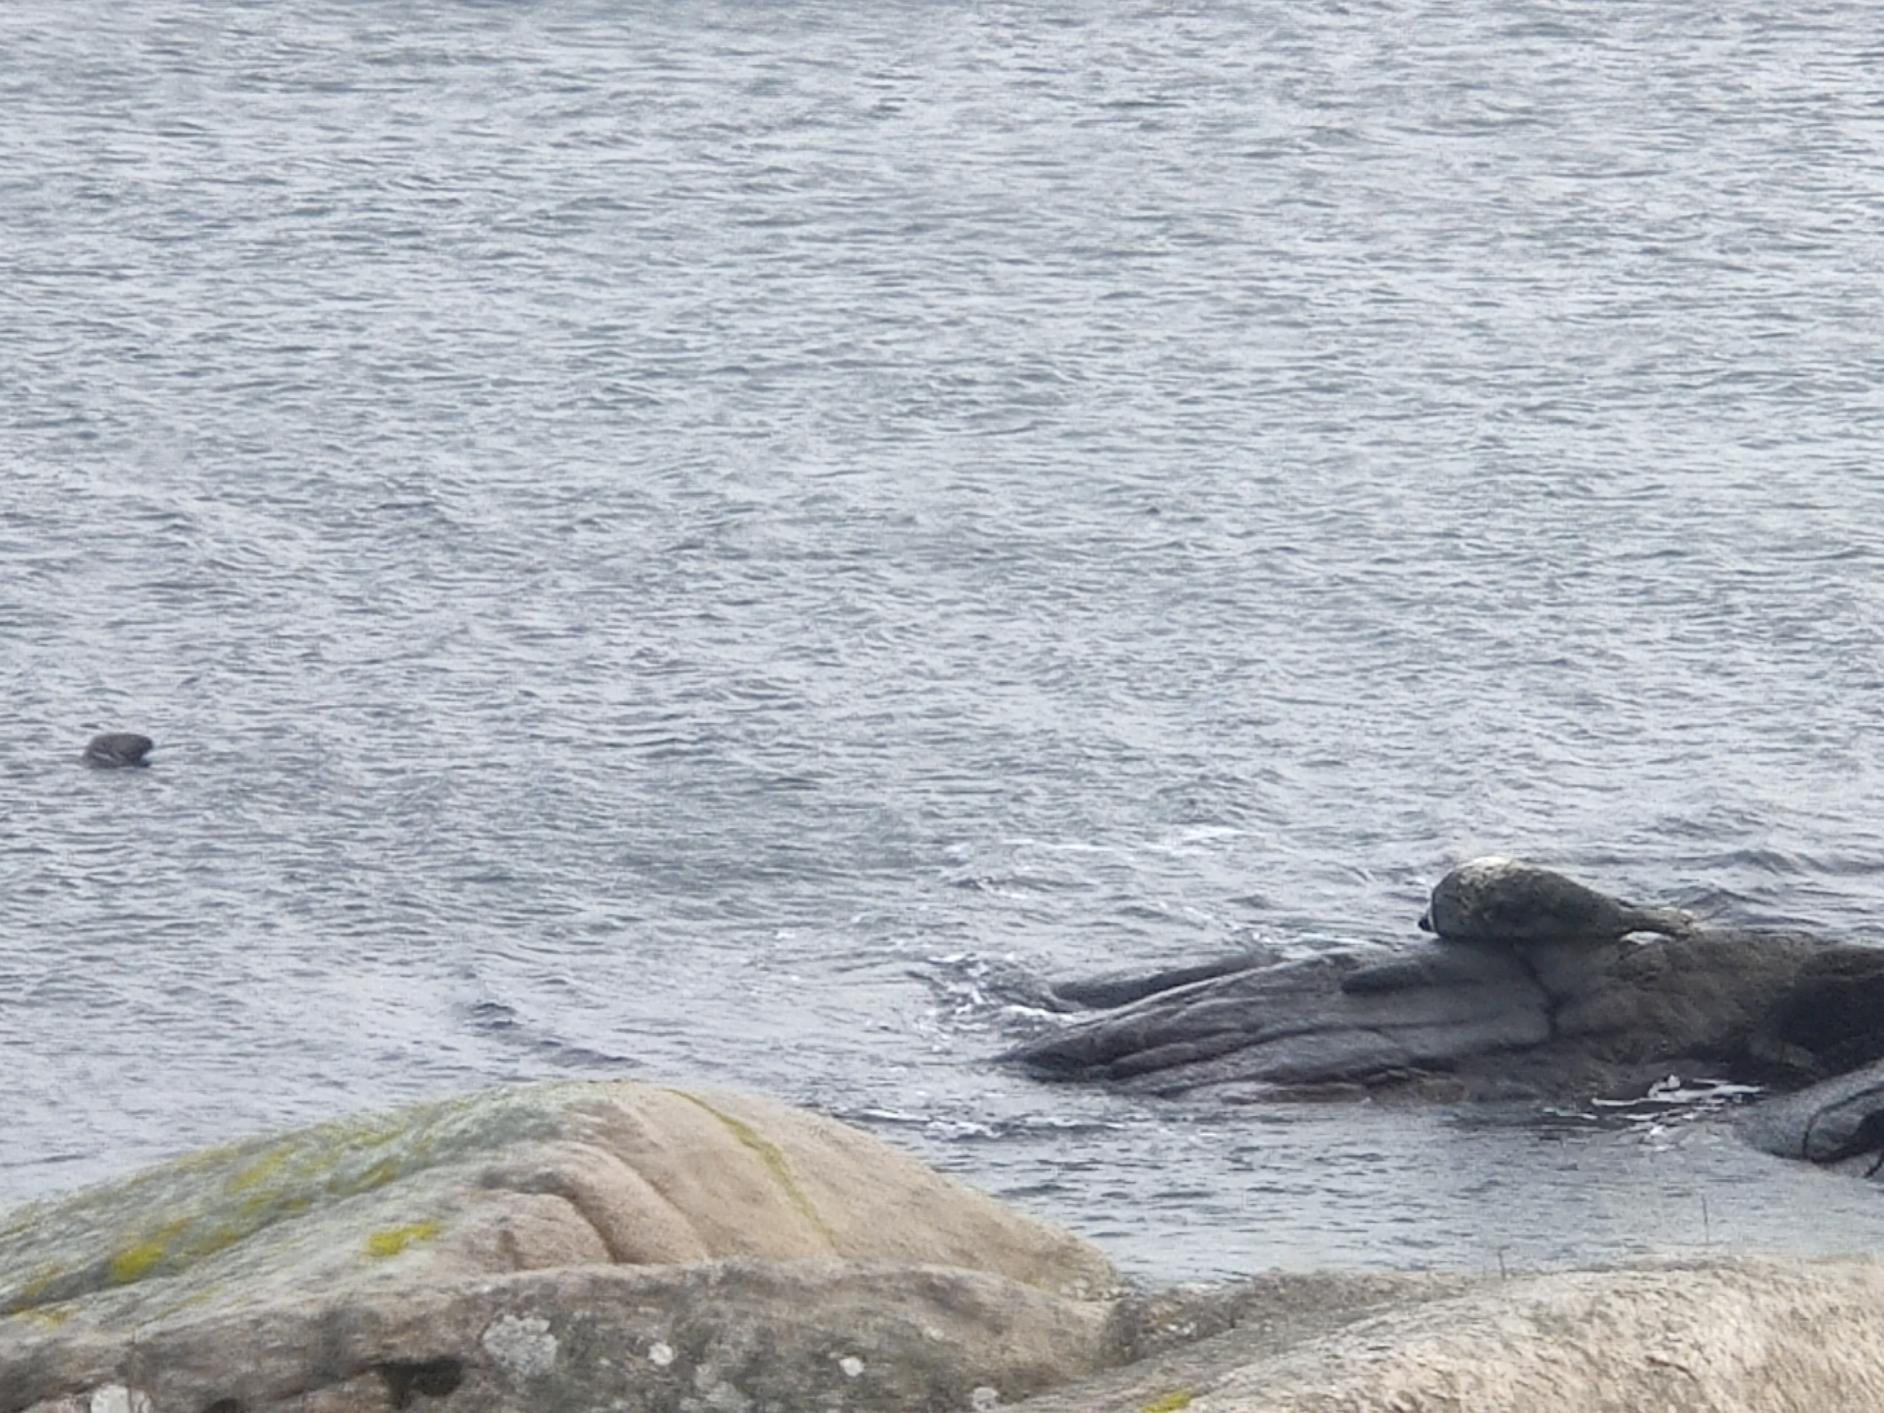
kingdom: Animalia
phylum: Chordata
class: Mammalia
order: Carnivora
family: Phocidae
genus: Halichoerus
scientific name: Halichoerus grypus
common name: Gråsæl
